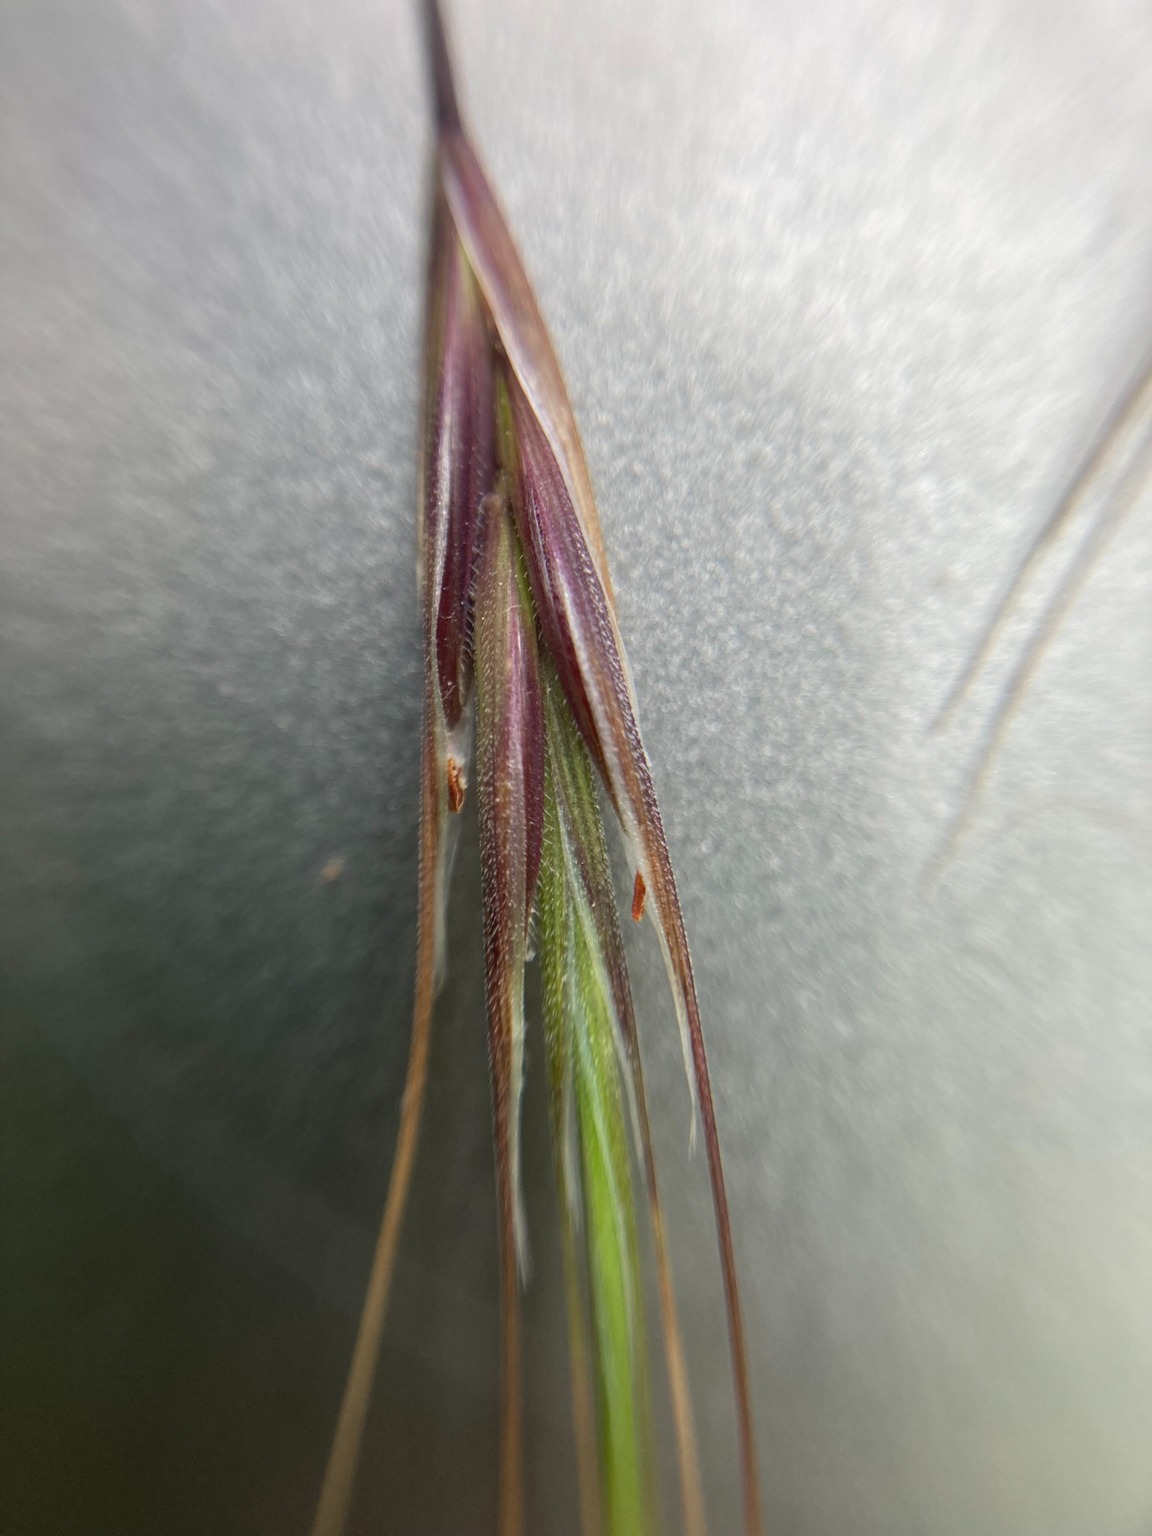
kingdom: Plantae
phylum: Tracheophyta
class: Liliopsida
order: Poales
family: Poaceae
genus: Bromus
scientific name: Bromus sterilis
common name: Gold hejre
